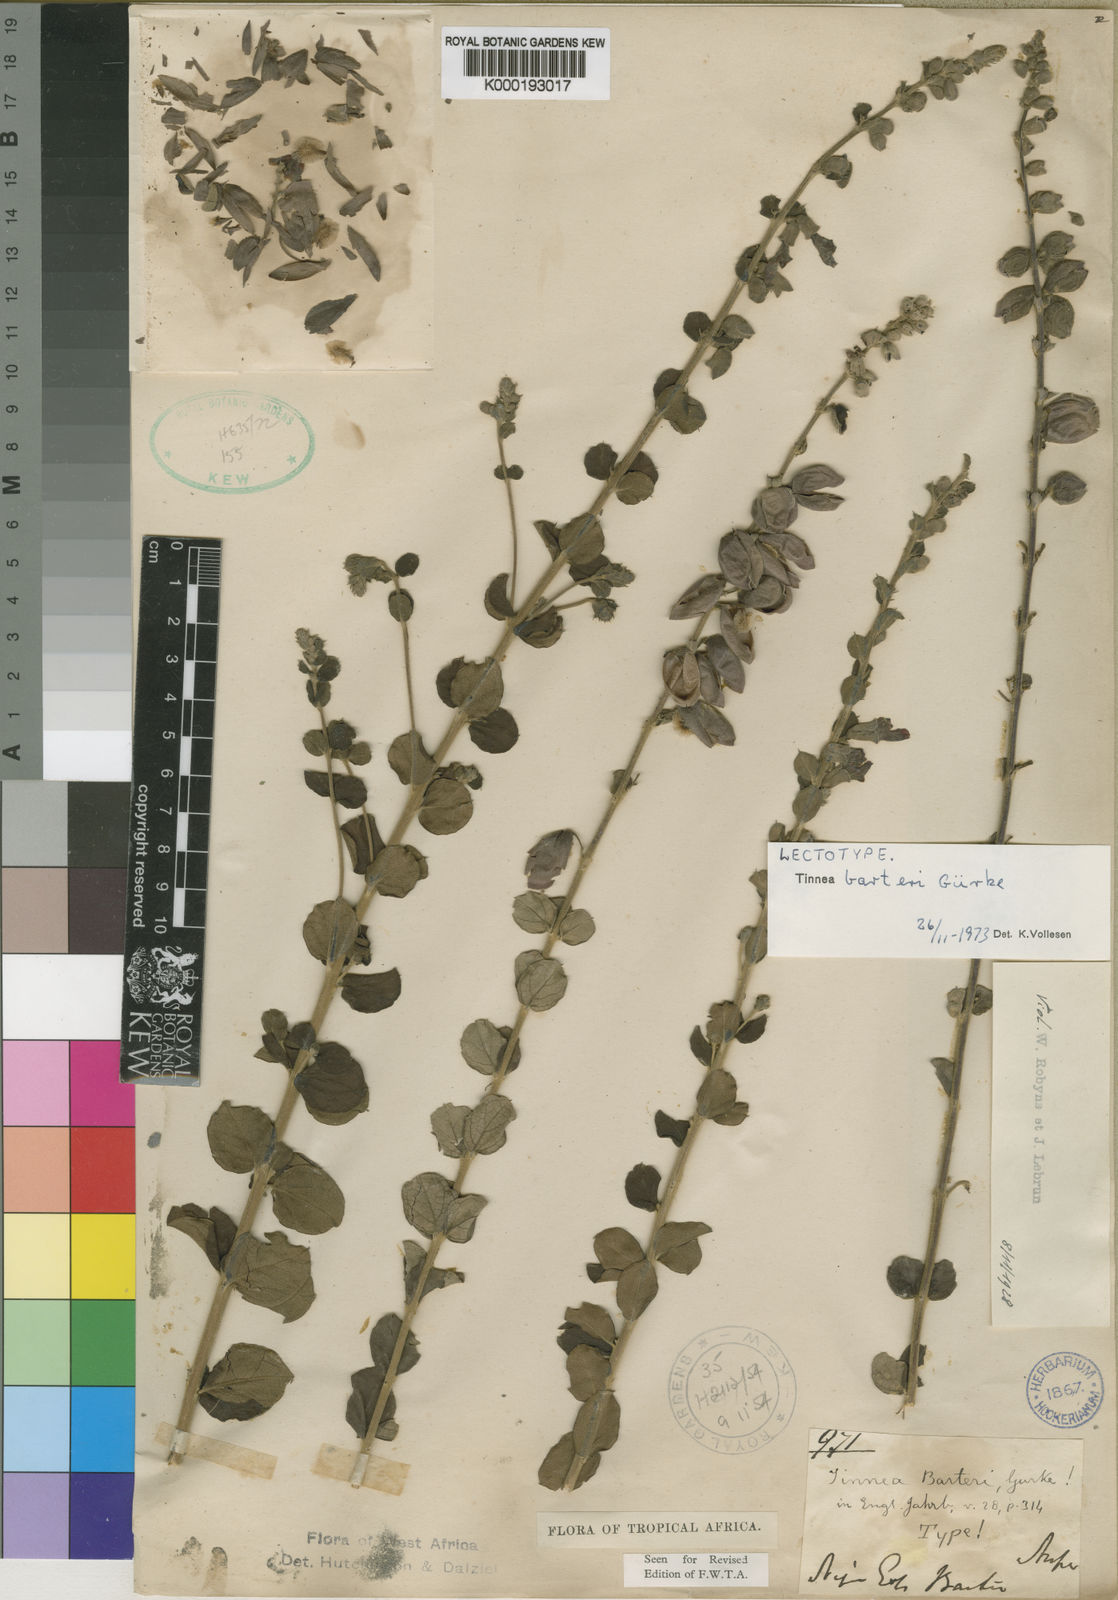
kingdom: Plantae
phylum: Tracheophyta
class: Magnoliopsida
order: Lamiales
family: Lamiaceae
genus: Tinnea
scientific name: Tinnea
